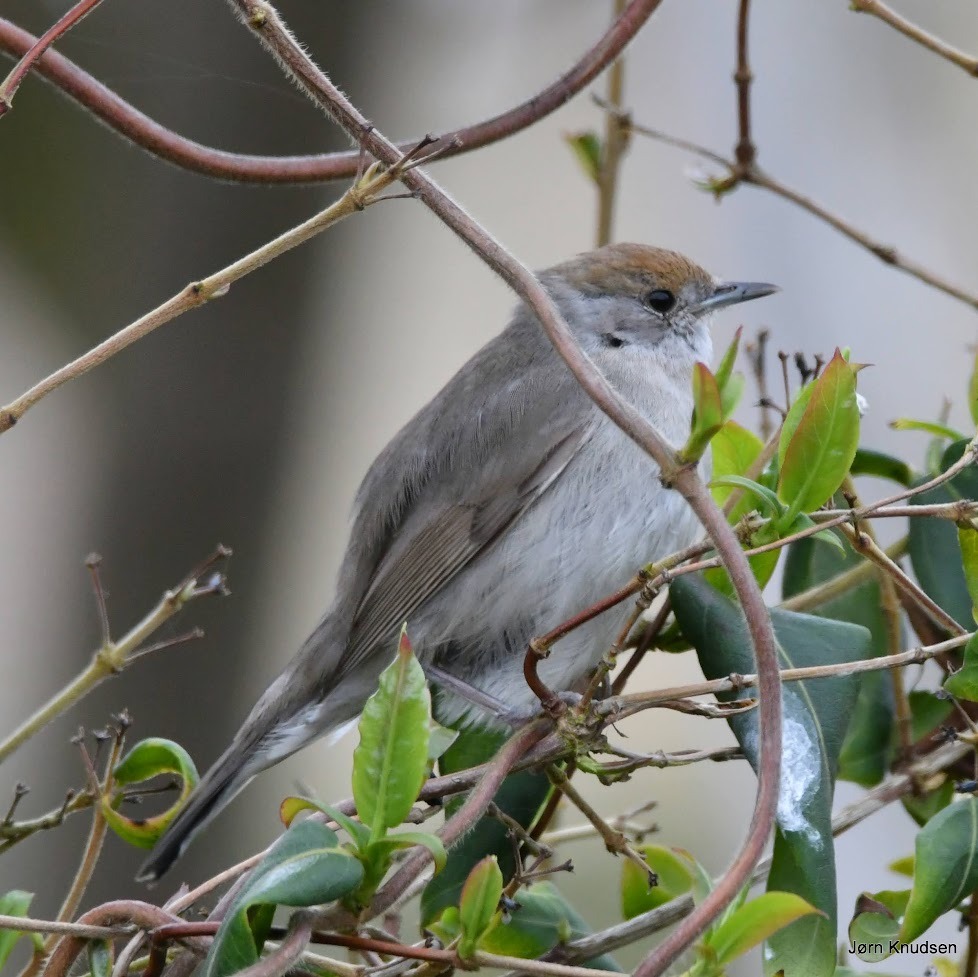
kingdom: Animalia
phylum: Chordata
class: Aves
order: Passeriformes
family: Sylviidae
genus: Sylvia
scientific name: Sylvia atricapilla
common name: Munk
